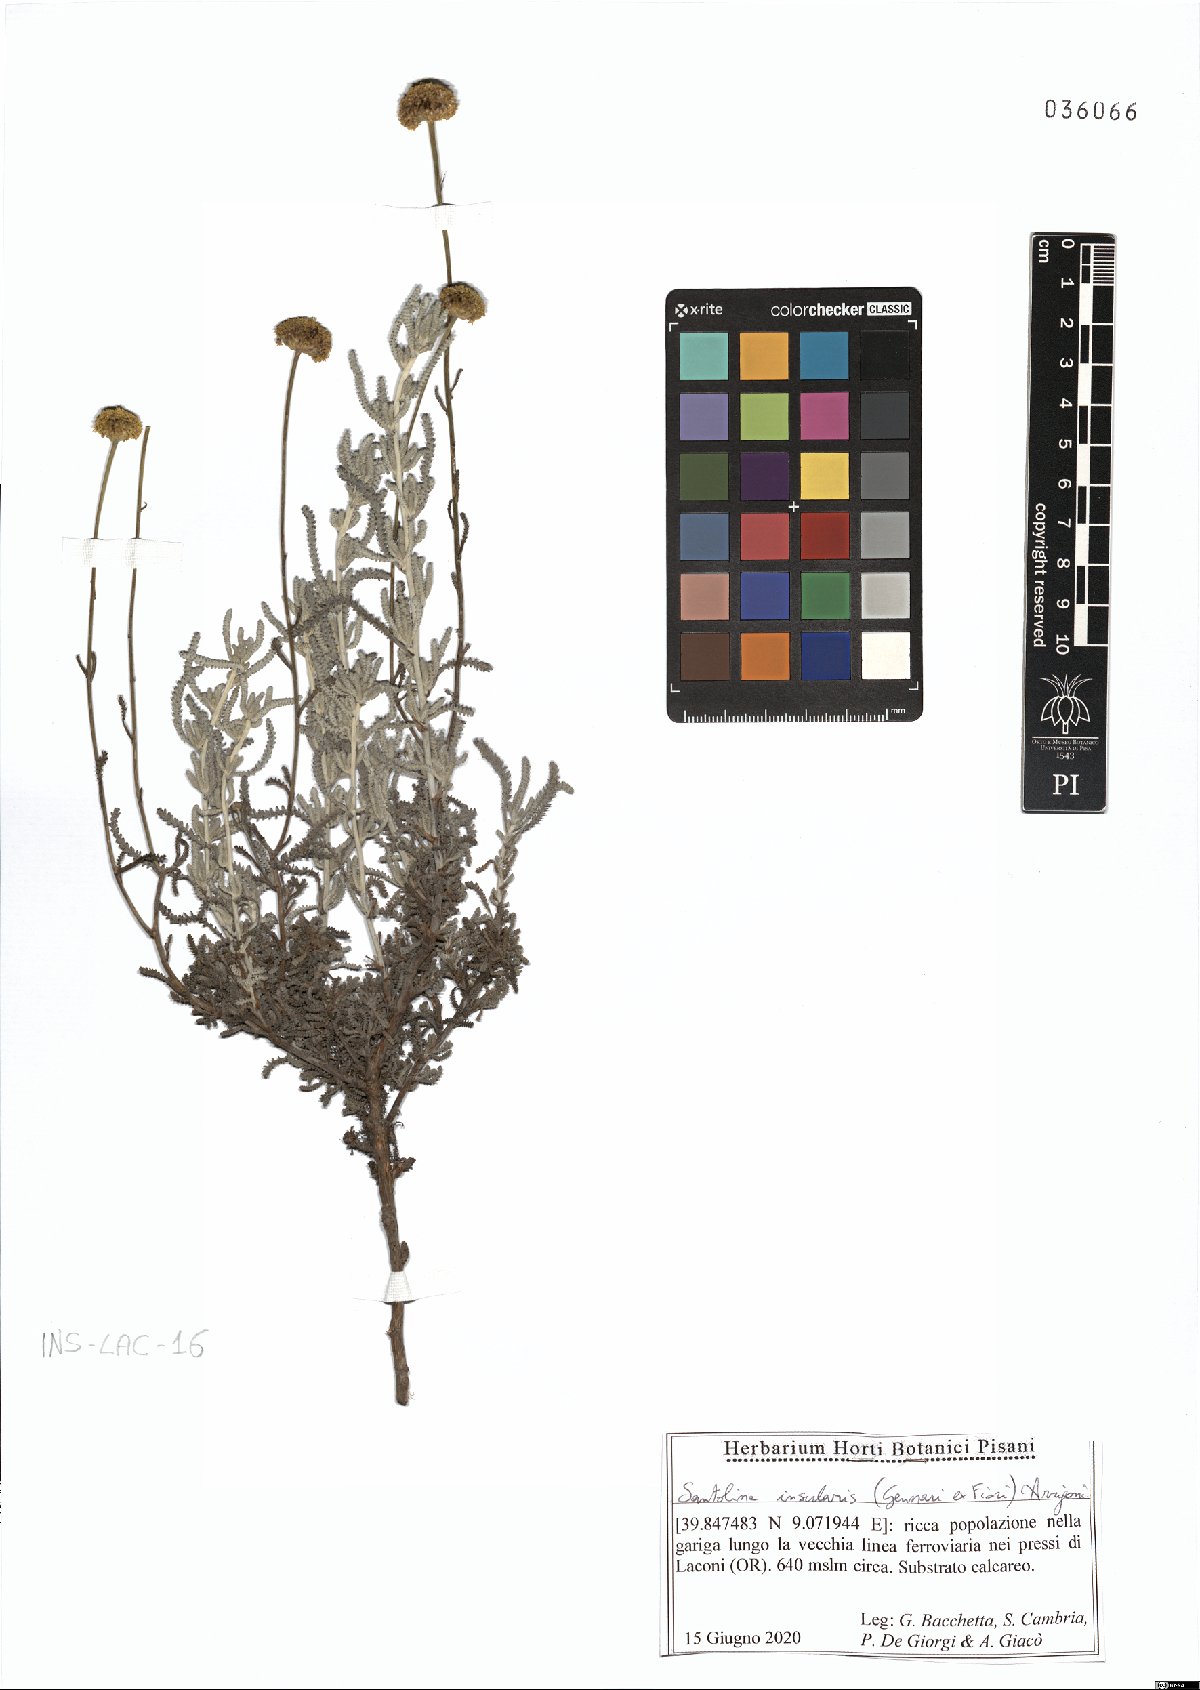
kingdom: Plantae
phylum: Tracheophyta
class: Magnoliopsida
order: Asterales
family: Asteraceae
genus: Santolina
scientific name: Santolina insularis
